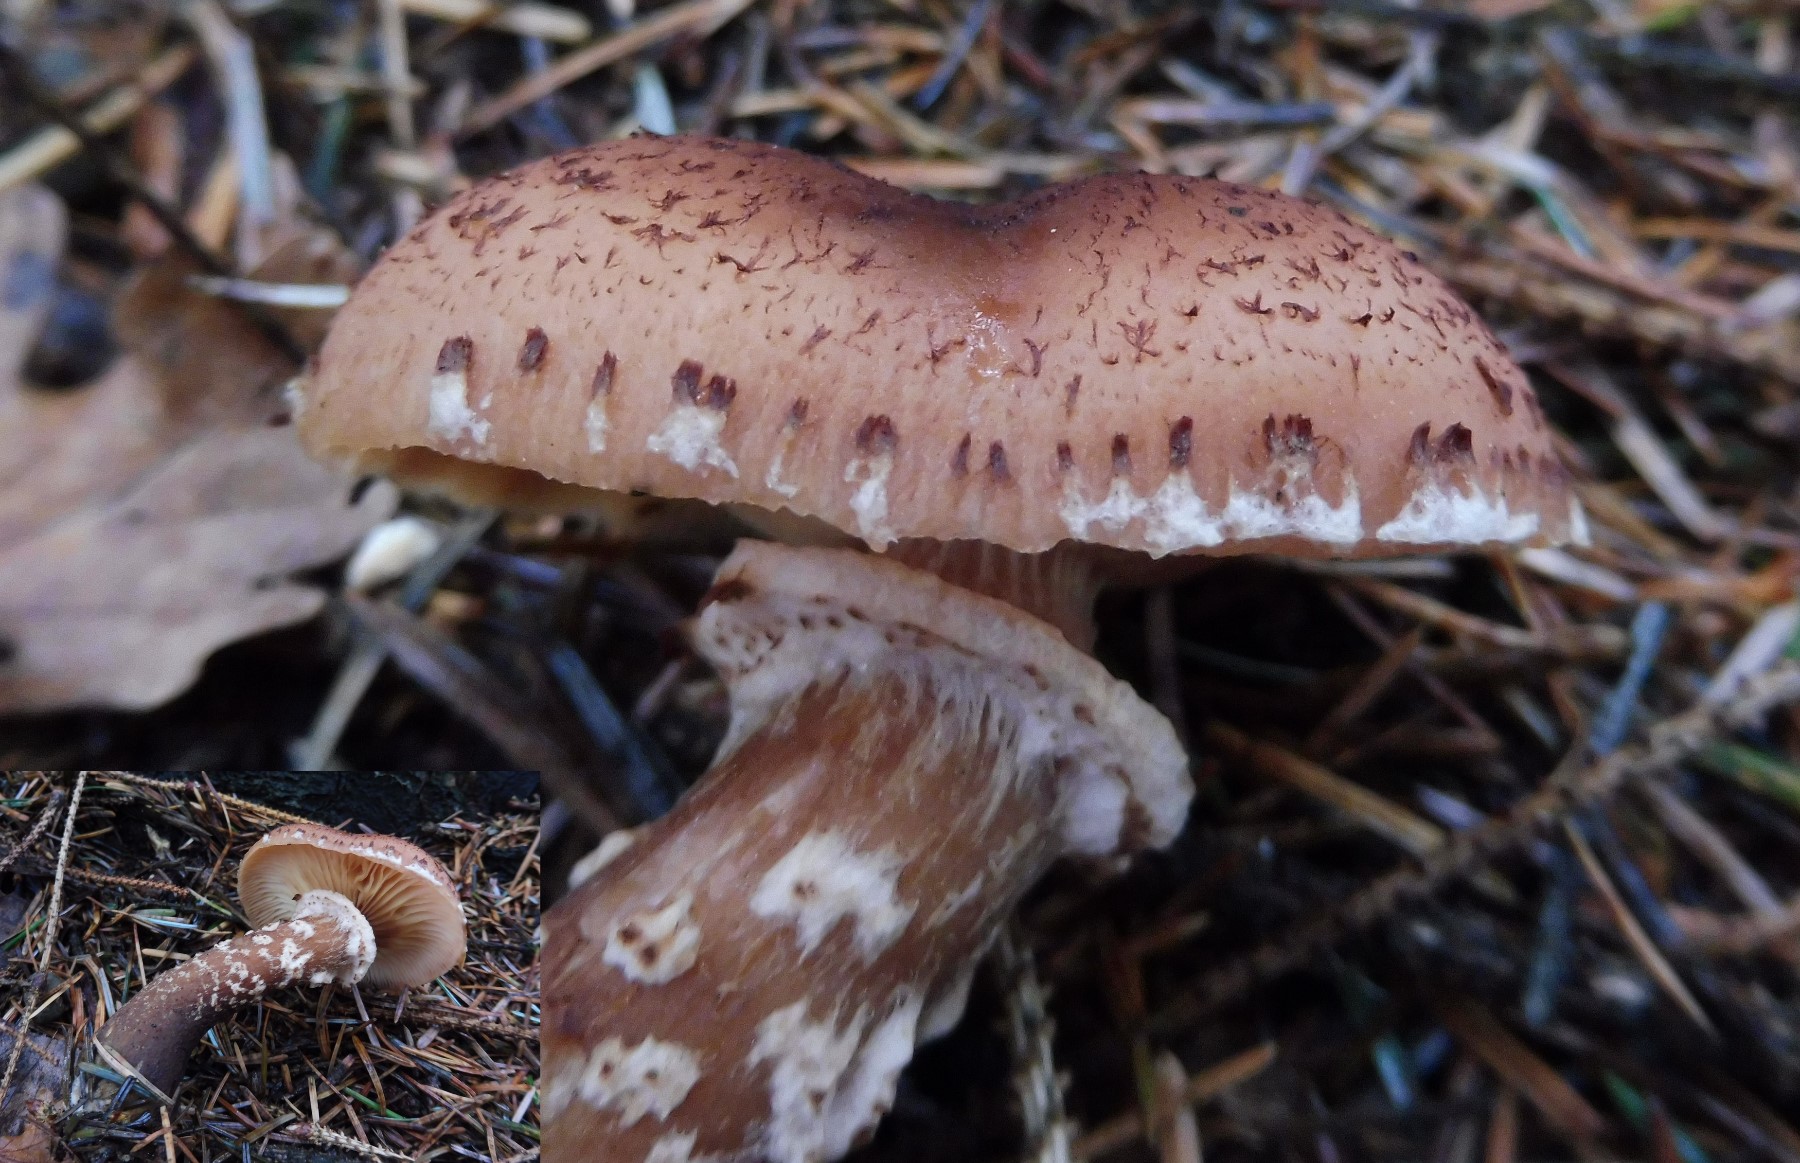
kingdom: Fungi
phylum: Basidiomycota
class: Agaricomycetes
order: Agaricales
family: Physalacriaceae
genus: Armillaria
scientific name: Armillaria ostoyae
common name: mørk honningsvamp
